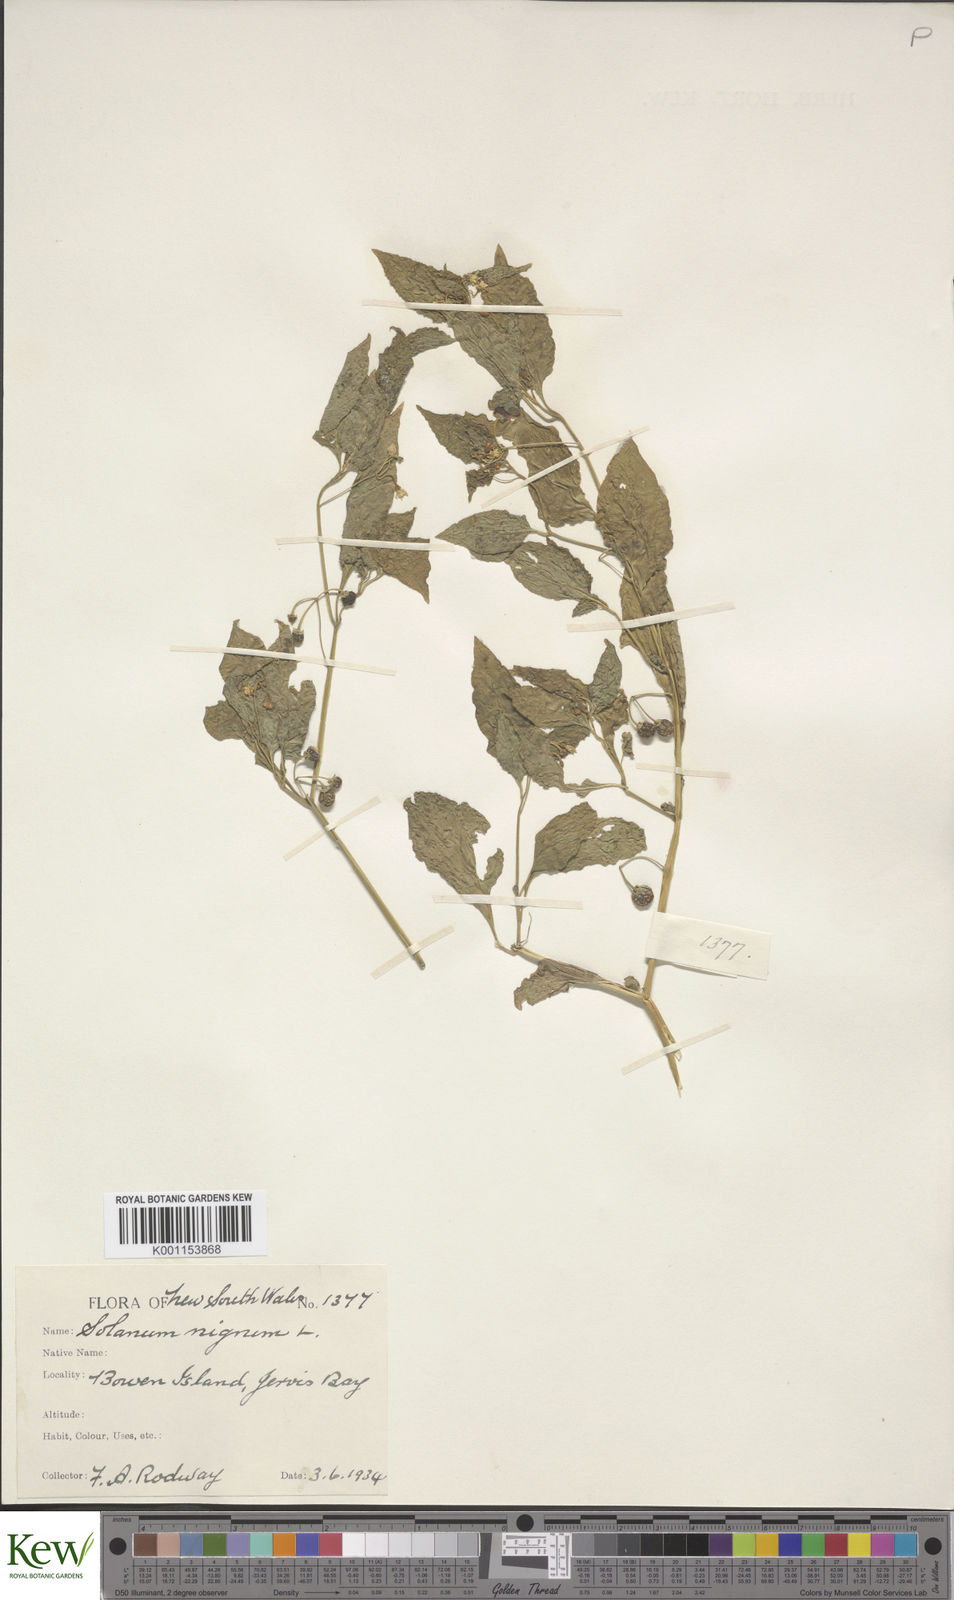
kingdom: Plantae
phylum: Tracheophyta
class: Magnoliopsida
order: Solanales
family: Solanaceae
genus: Solanum
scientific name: Solanum americanum
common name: American black nightshade
